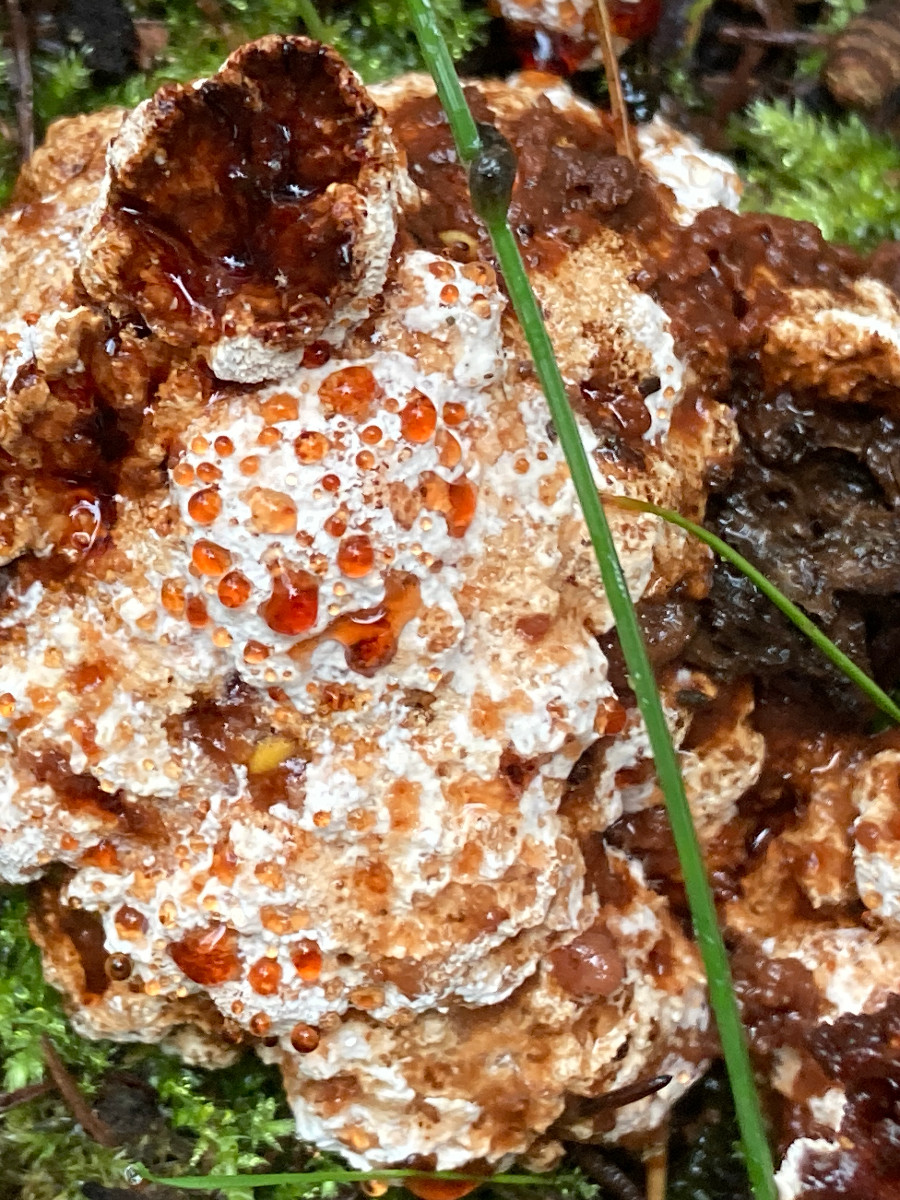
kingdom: Fungi
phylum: Basidiomycota
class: Agaricomycetes
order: Polyporales
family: Podoscyphaceae
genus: Abortiporus
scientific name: Abortiporus biennis
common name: rødmende pjalteporesvamp
